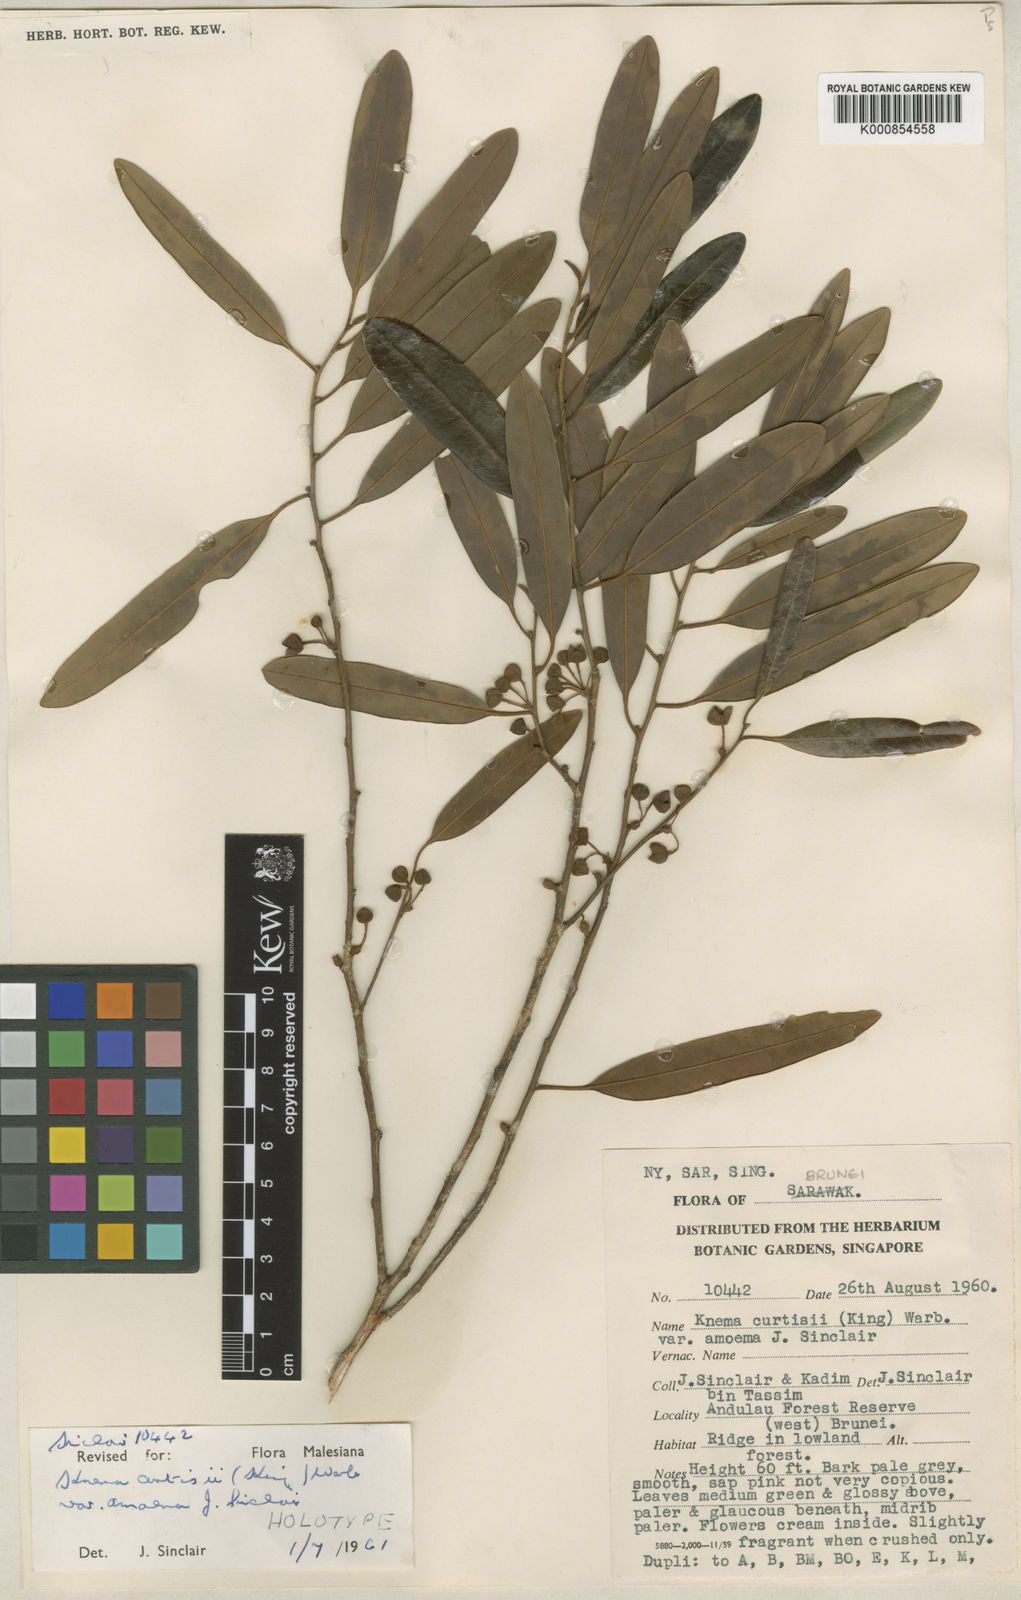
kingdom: Plantae
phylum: Tracheophyta
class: Magnoliopsida
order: Magnoliales
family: Myristicaceae
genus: Knema
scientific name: Knema curtisii
